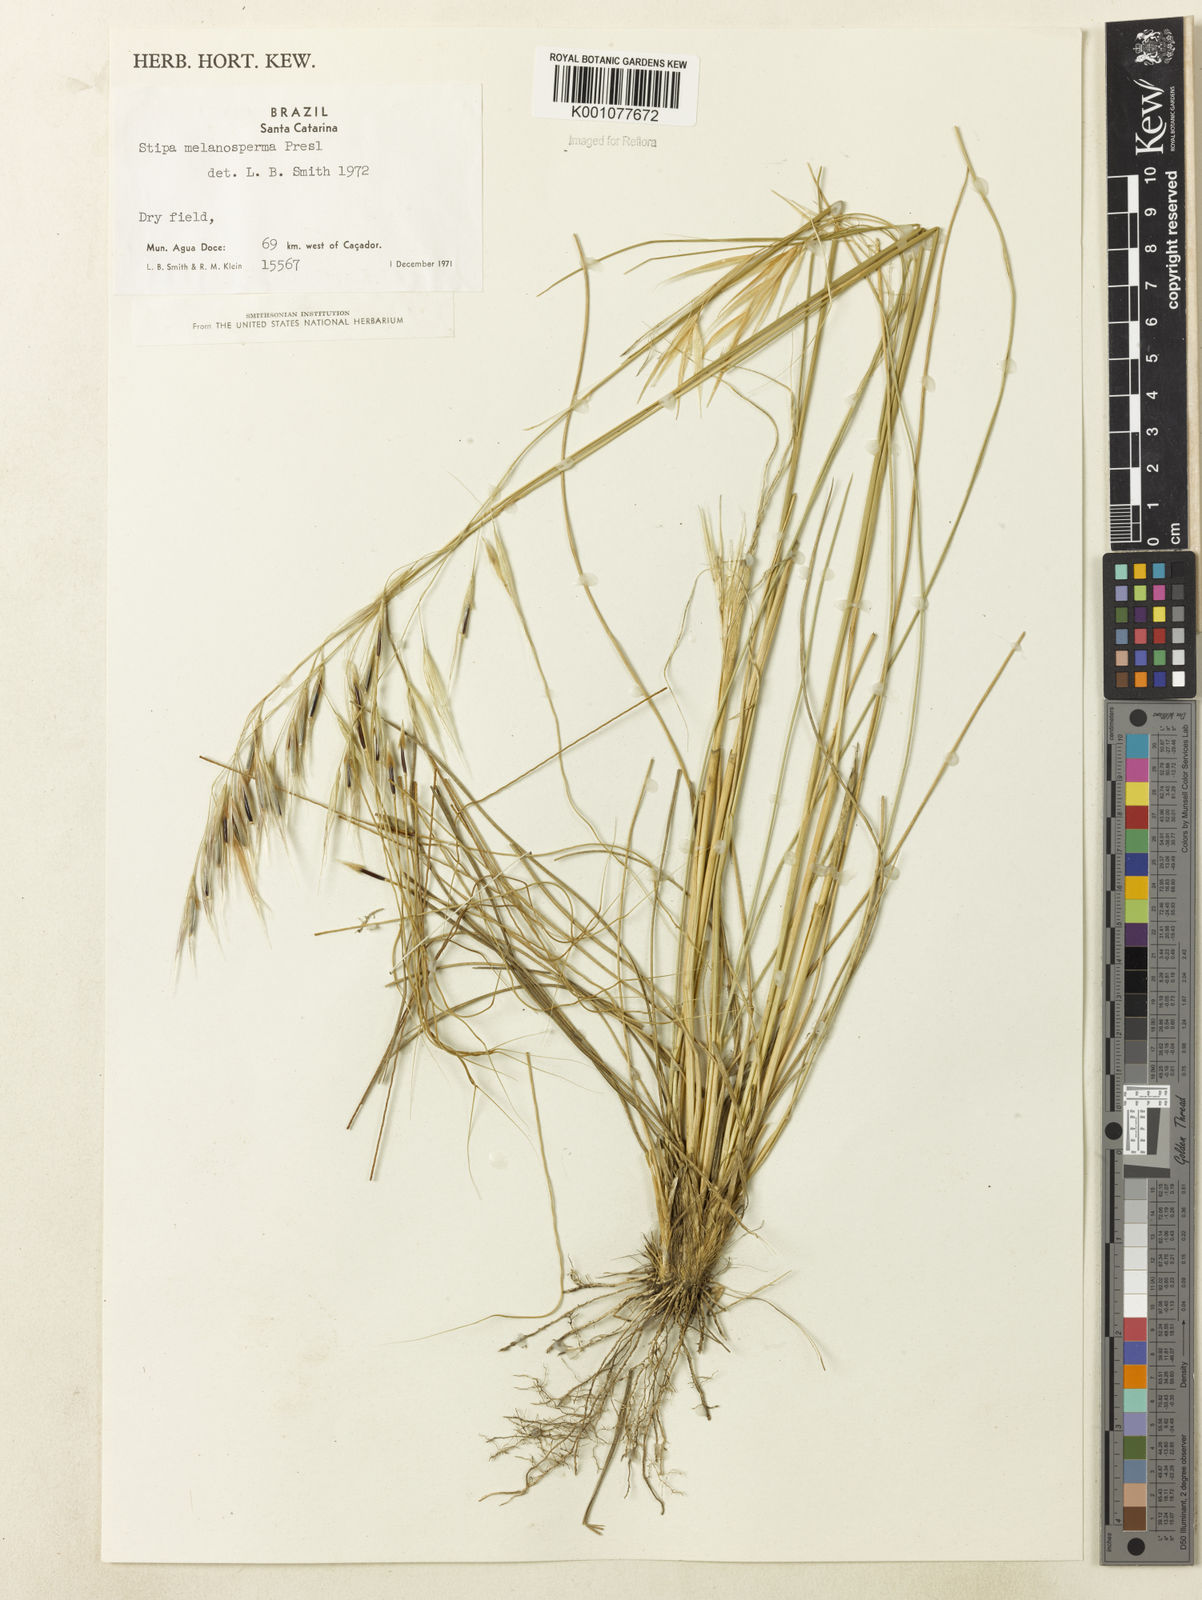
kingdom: Plantae
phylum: Tracheophyta
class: Liliopsida
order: Poales
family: Poaceae
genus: Nassella
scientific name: Nassella melanosperma
